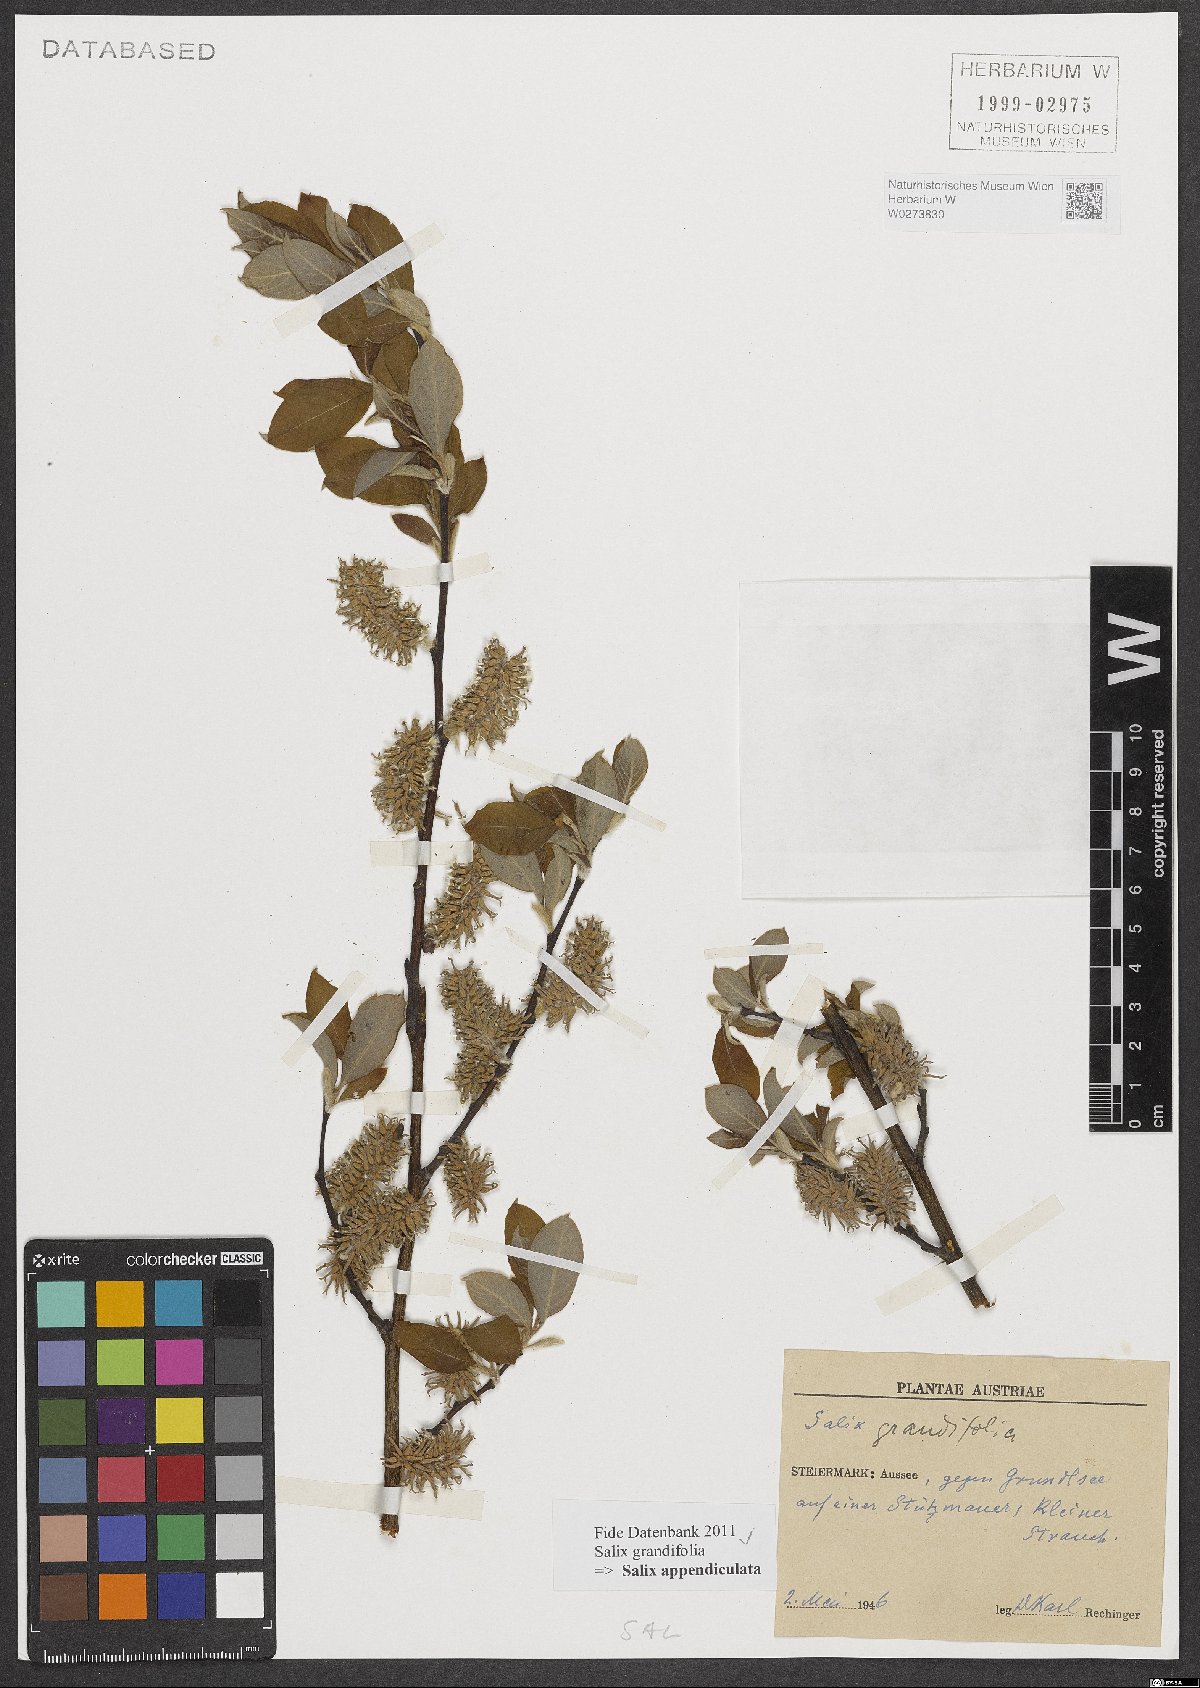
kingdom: Plantae
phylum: Tracheophyta
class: Magnoliopsida
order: Malpighiales
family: Salicaceae
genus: Salix
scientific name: Salix appendiculata
